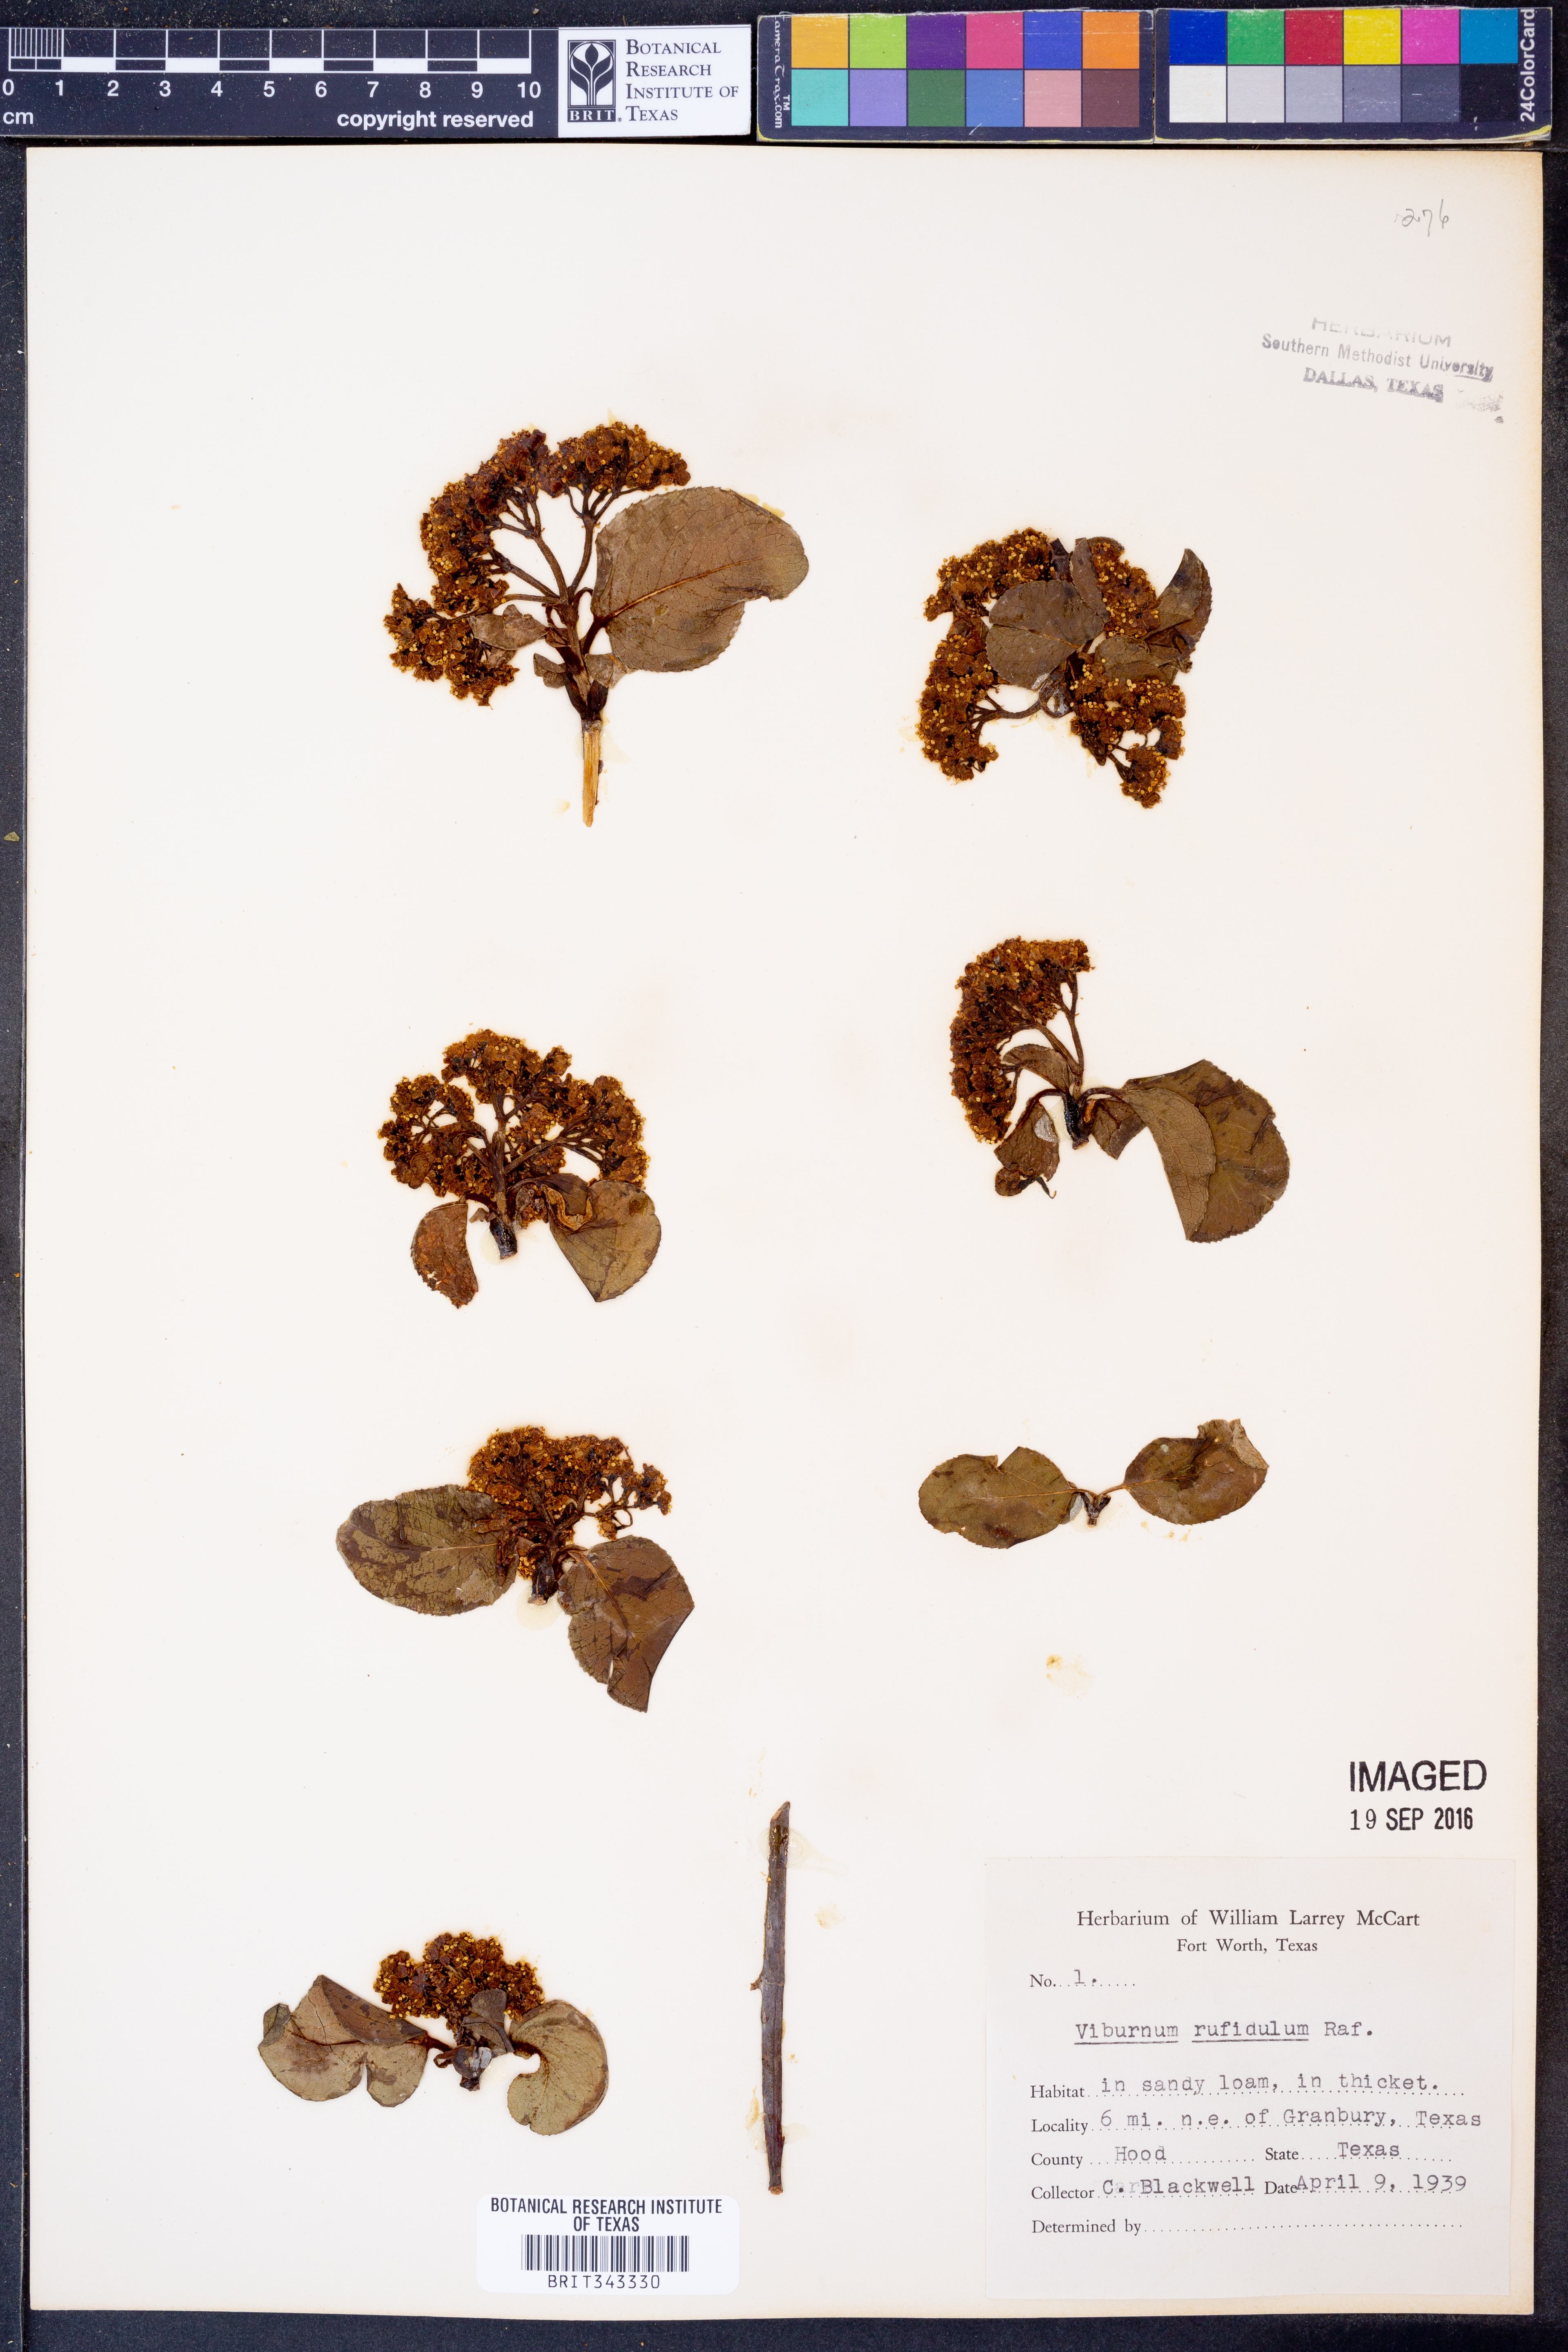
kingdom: Plantae
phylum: Tracheophyta
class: Magnoliopsida
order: Dipsacales
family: Viburnaceae
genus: Viburnum
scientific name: Viburnum rufidulum
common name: Blue haw
